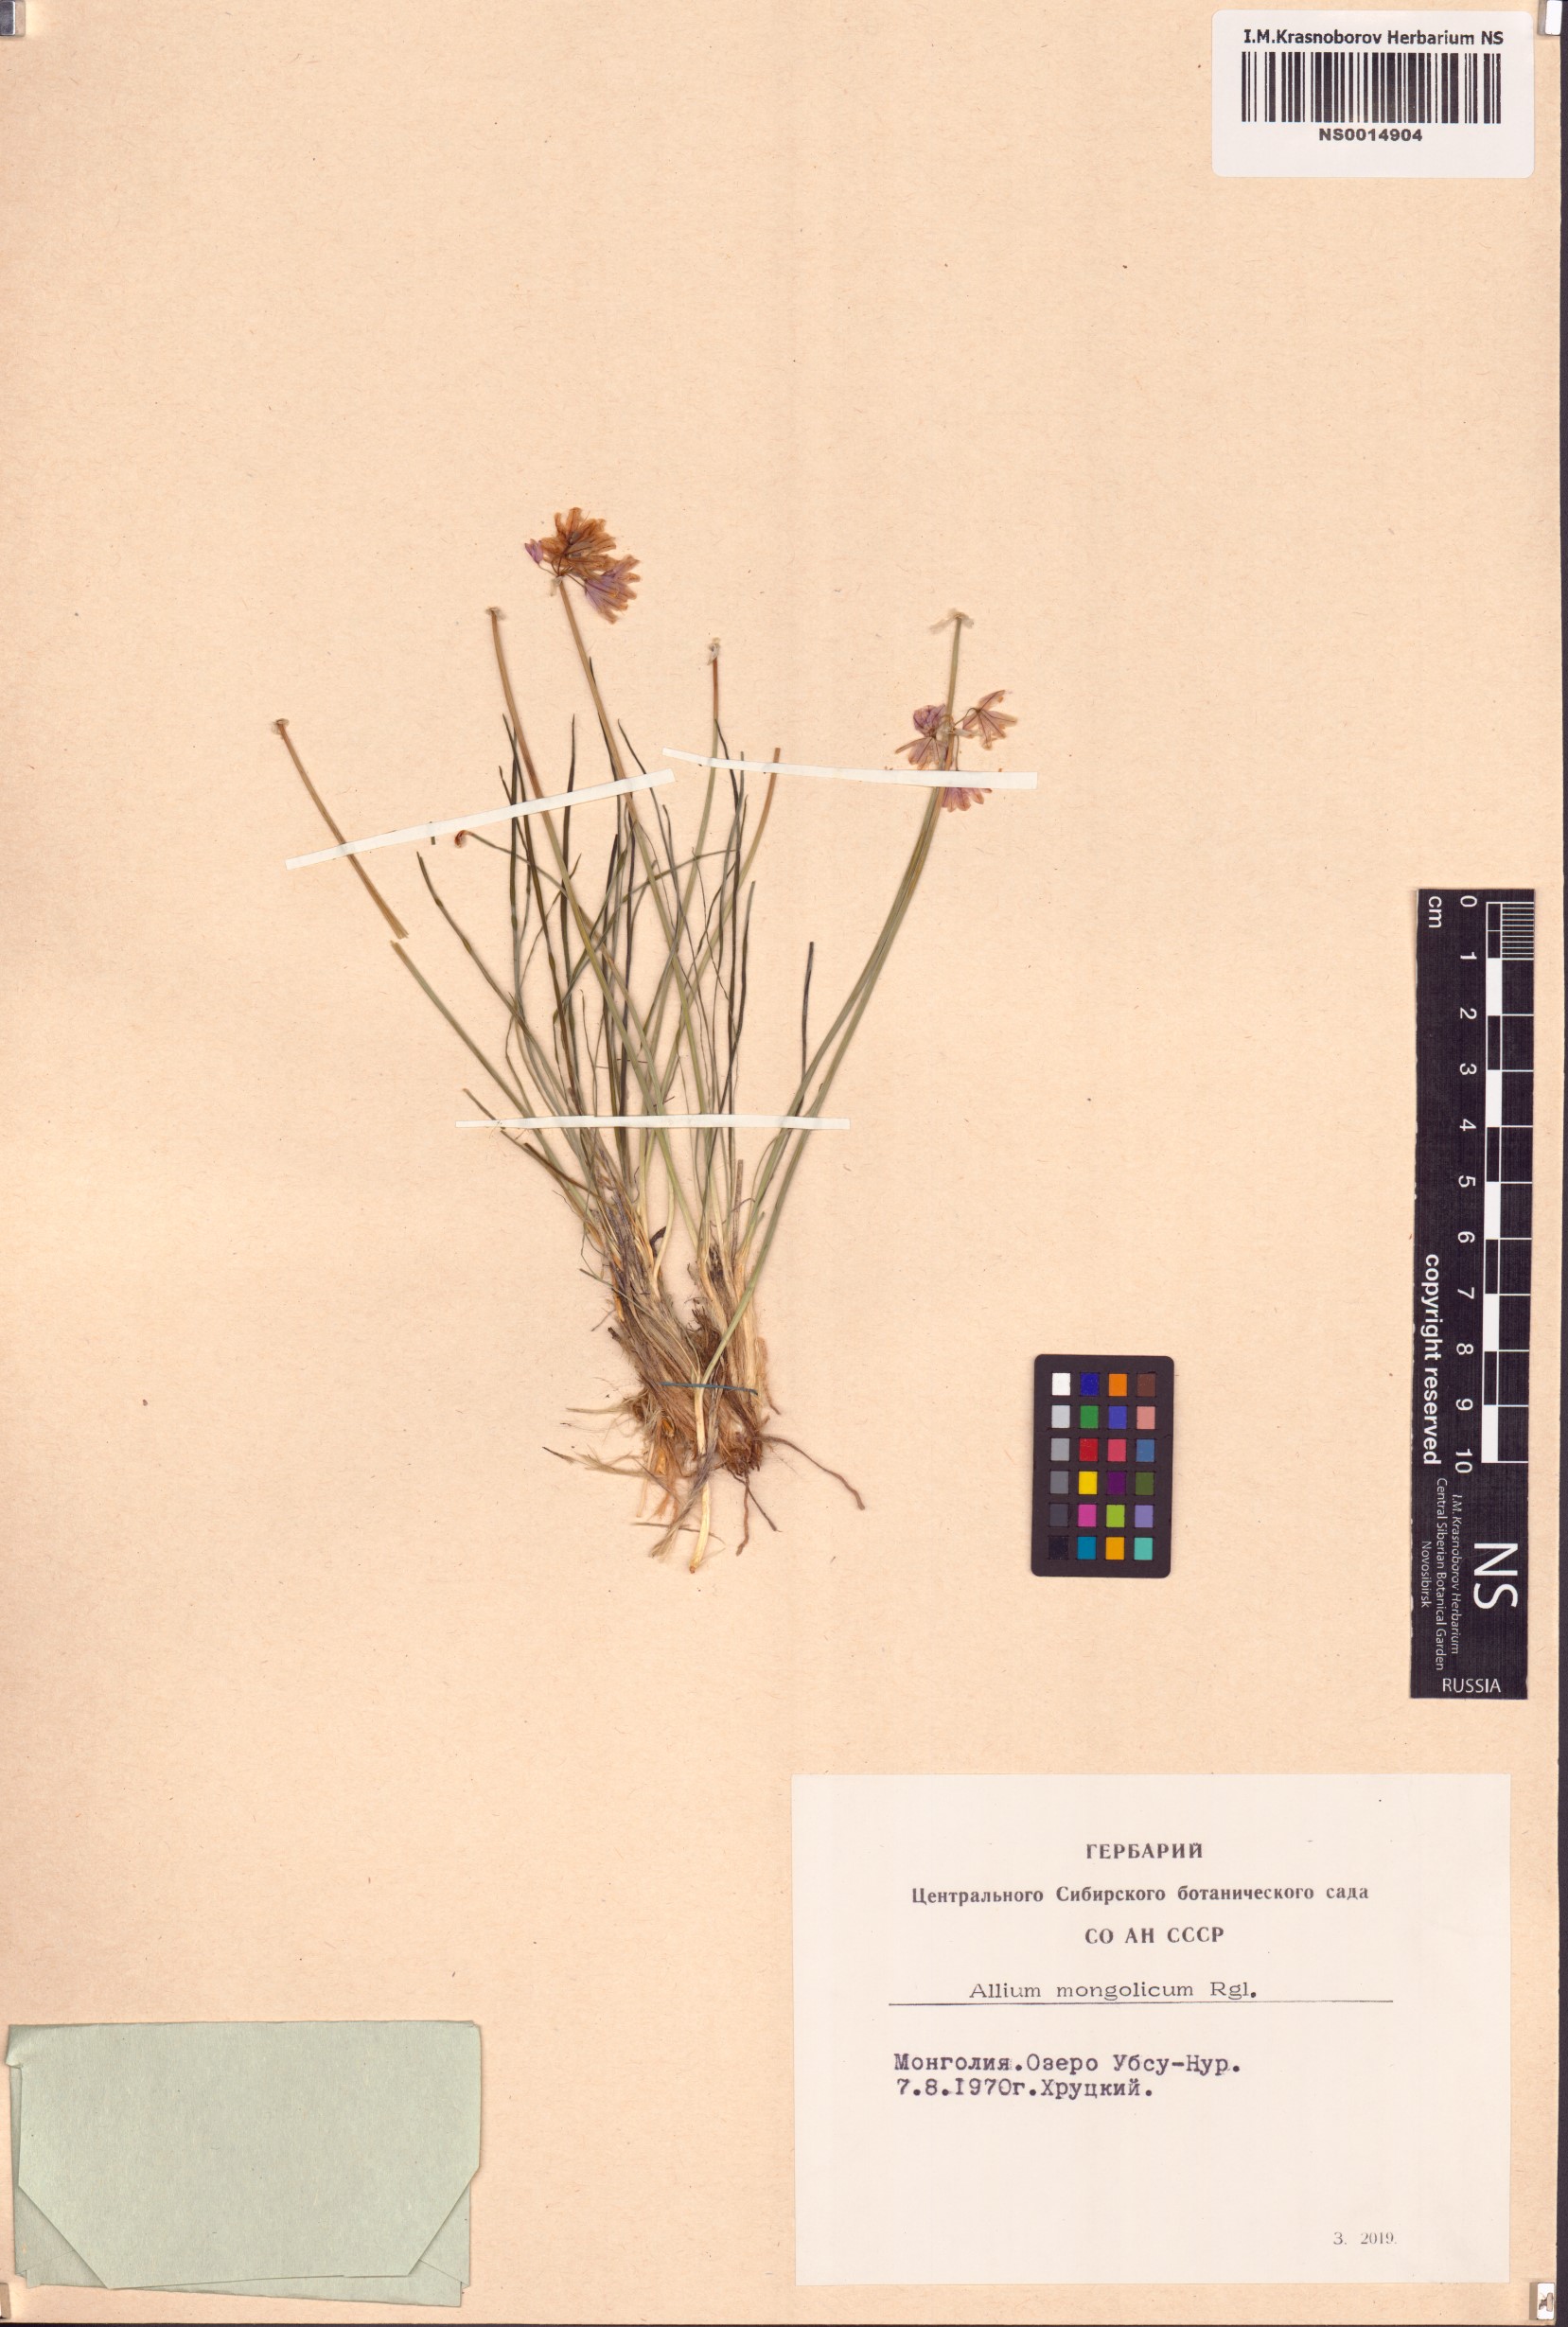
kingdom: Plantae
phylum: Tracheophyta
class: Liliopsida
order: Asparagales
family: Amaryllidaceae
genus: Allium
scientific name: Allium mongolicum
